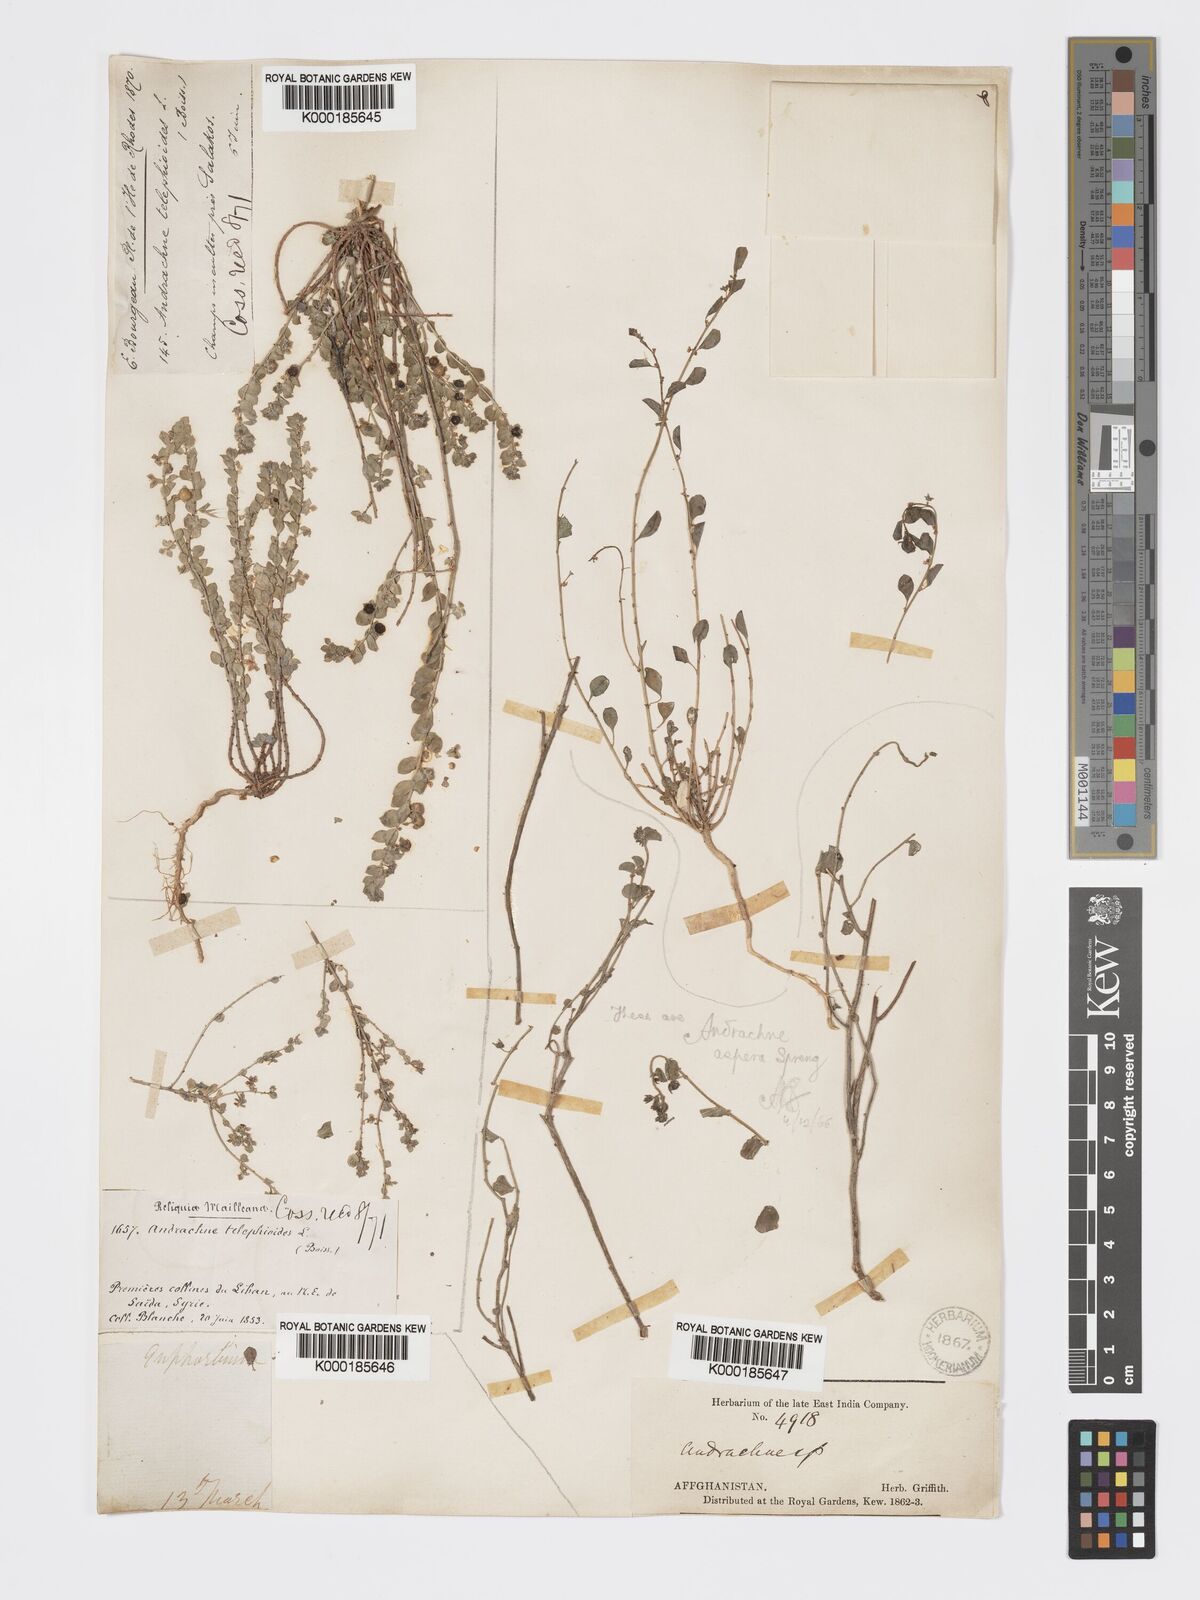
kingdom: Plantae
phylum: Tracheophyta
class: Magnoliopsida
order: Malpighiales
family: Phyllanthaceae
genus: Andrachne
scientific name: Andrachne telephioides
